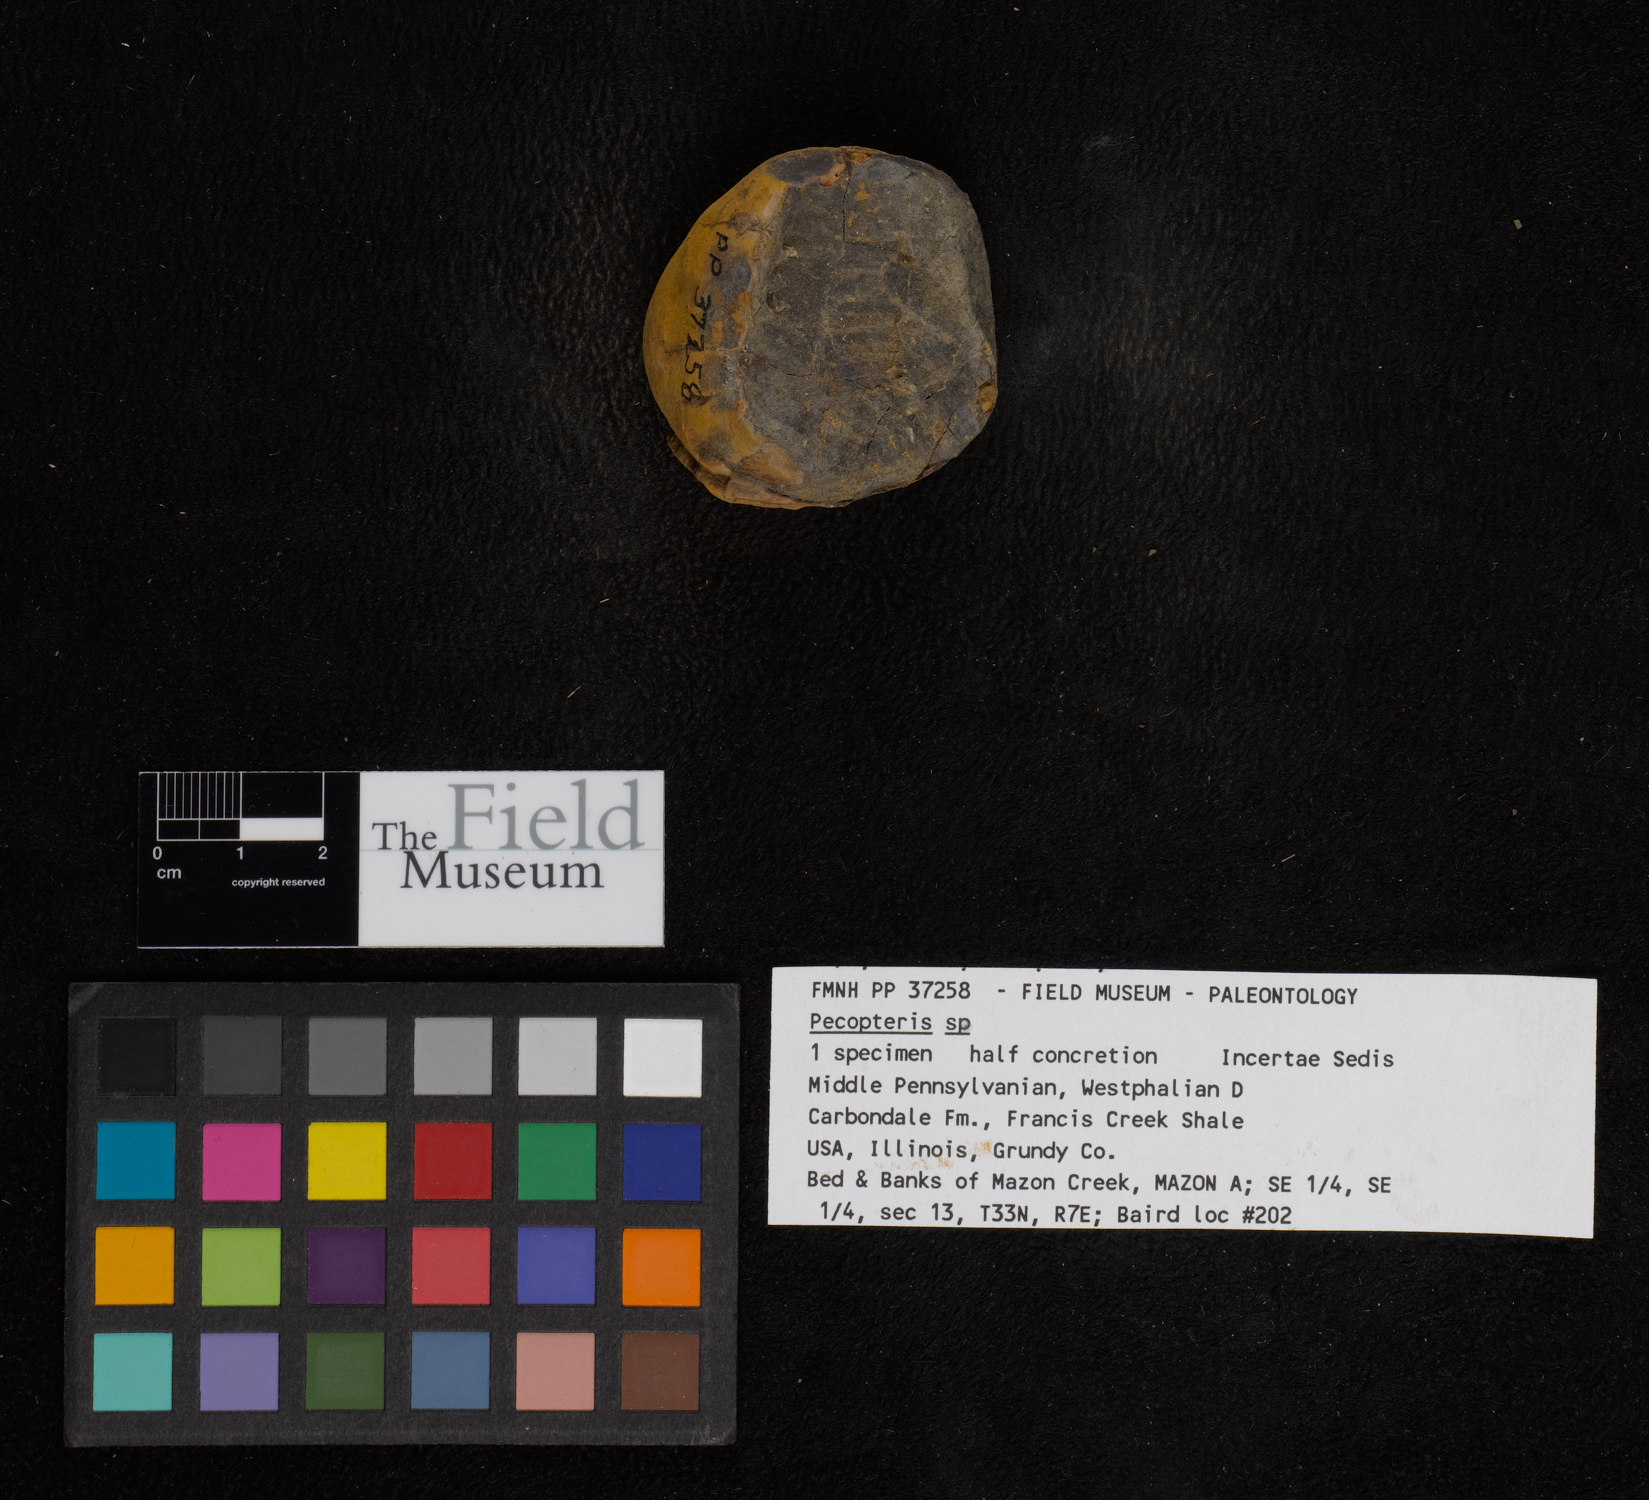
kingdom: Plantae
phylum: Tracheophyta
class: Polypodiopsida
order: Marattiales
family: Asterothecaceae
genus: Pecopteris
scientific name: Pecopteris
